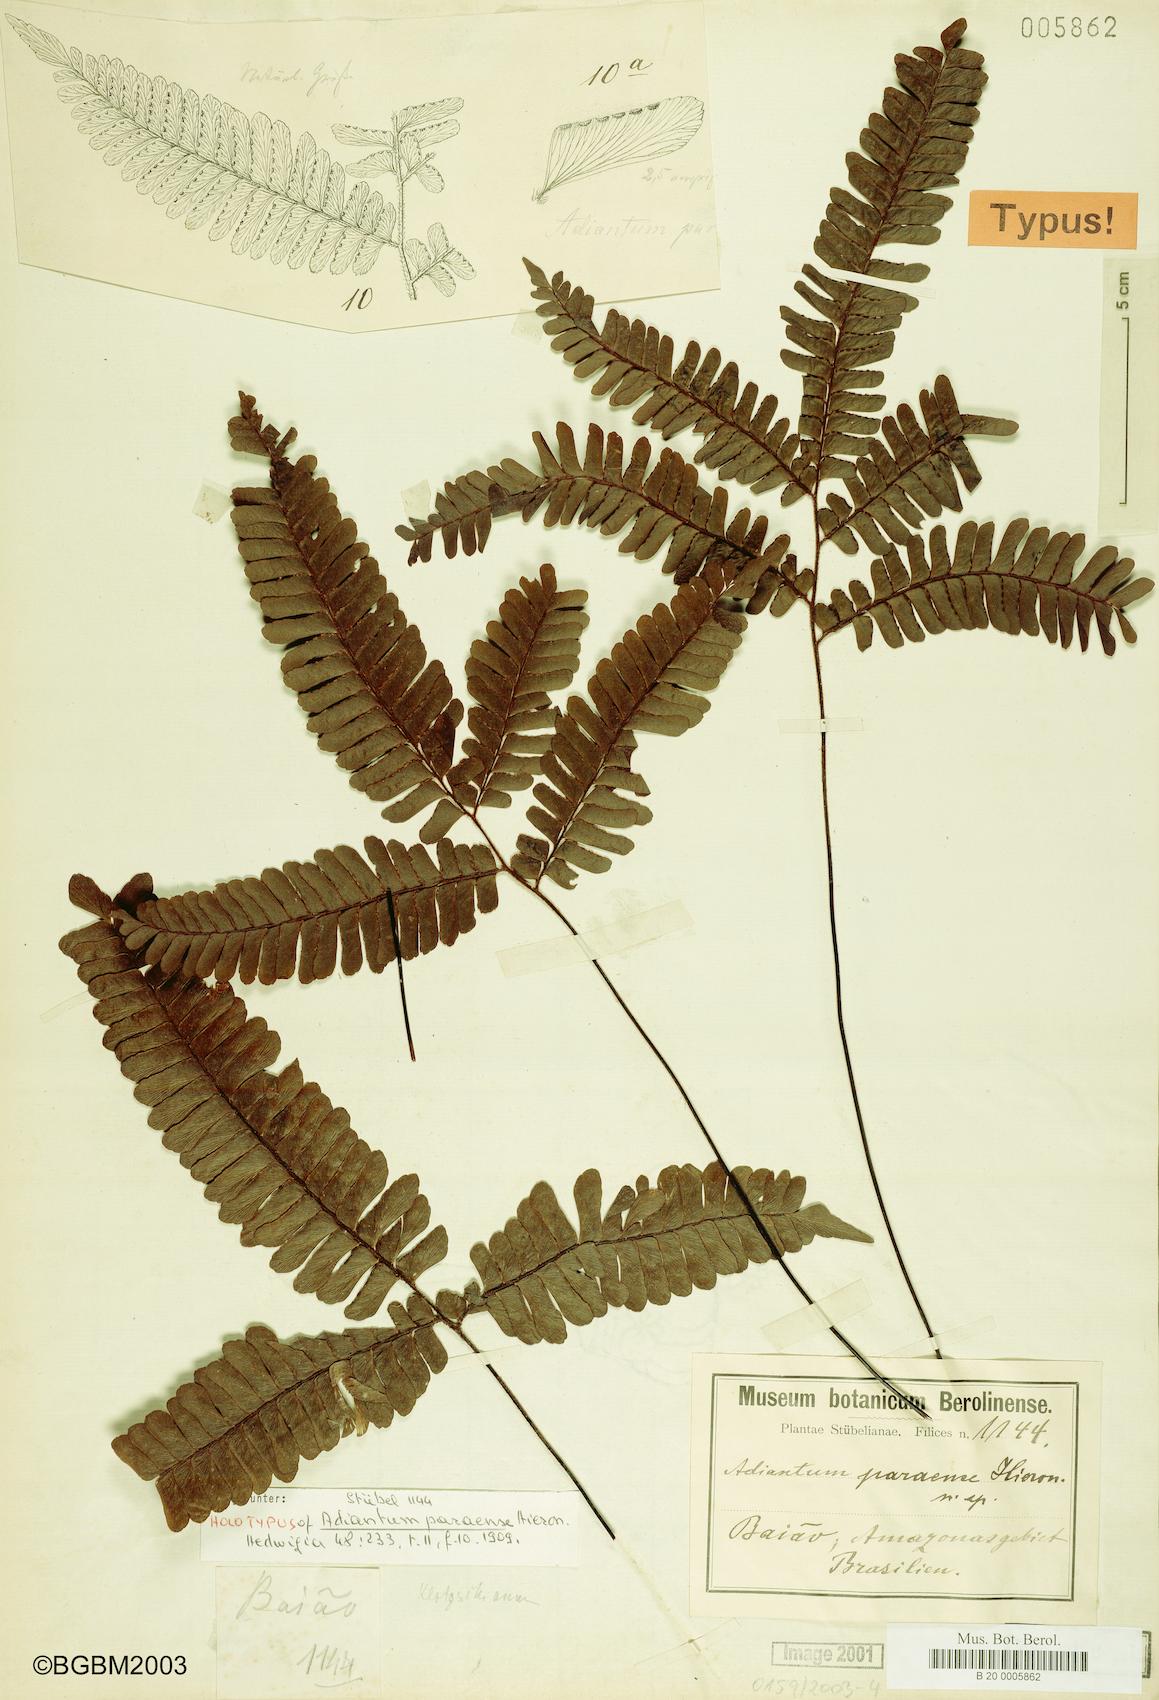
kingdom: Plantae
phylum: Tracheophyta
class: Polypodiopsida
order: Polypodiales
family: Pteridaceae
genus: Adiantum
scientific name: Adiantum paraense
